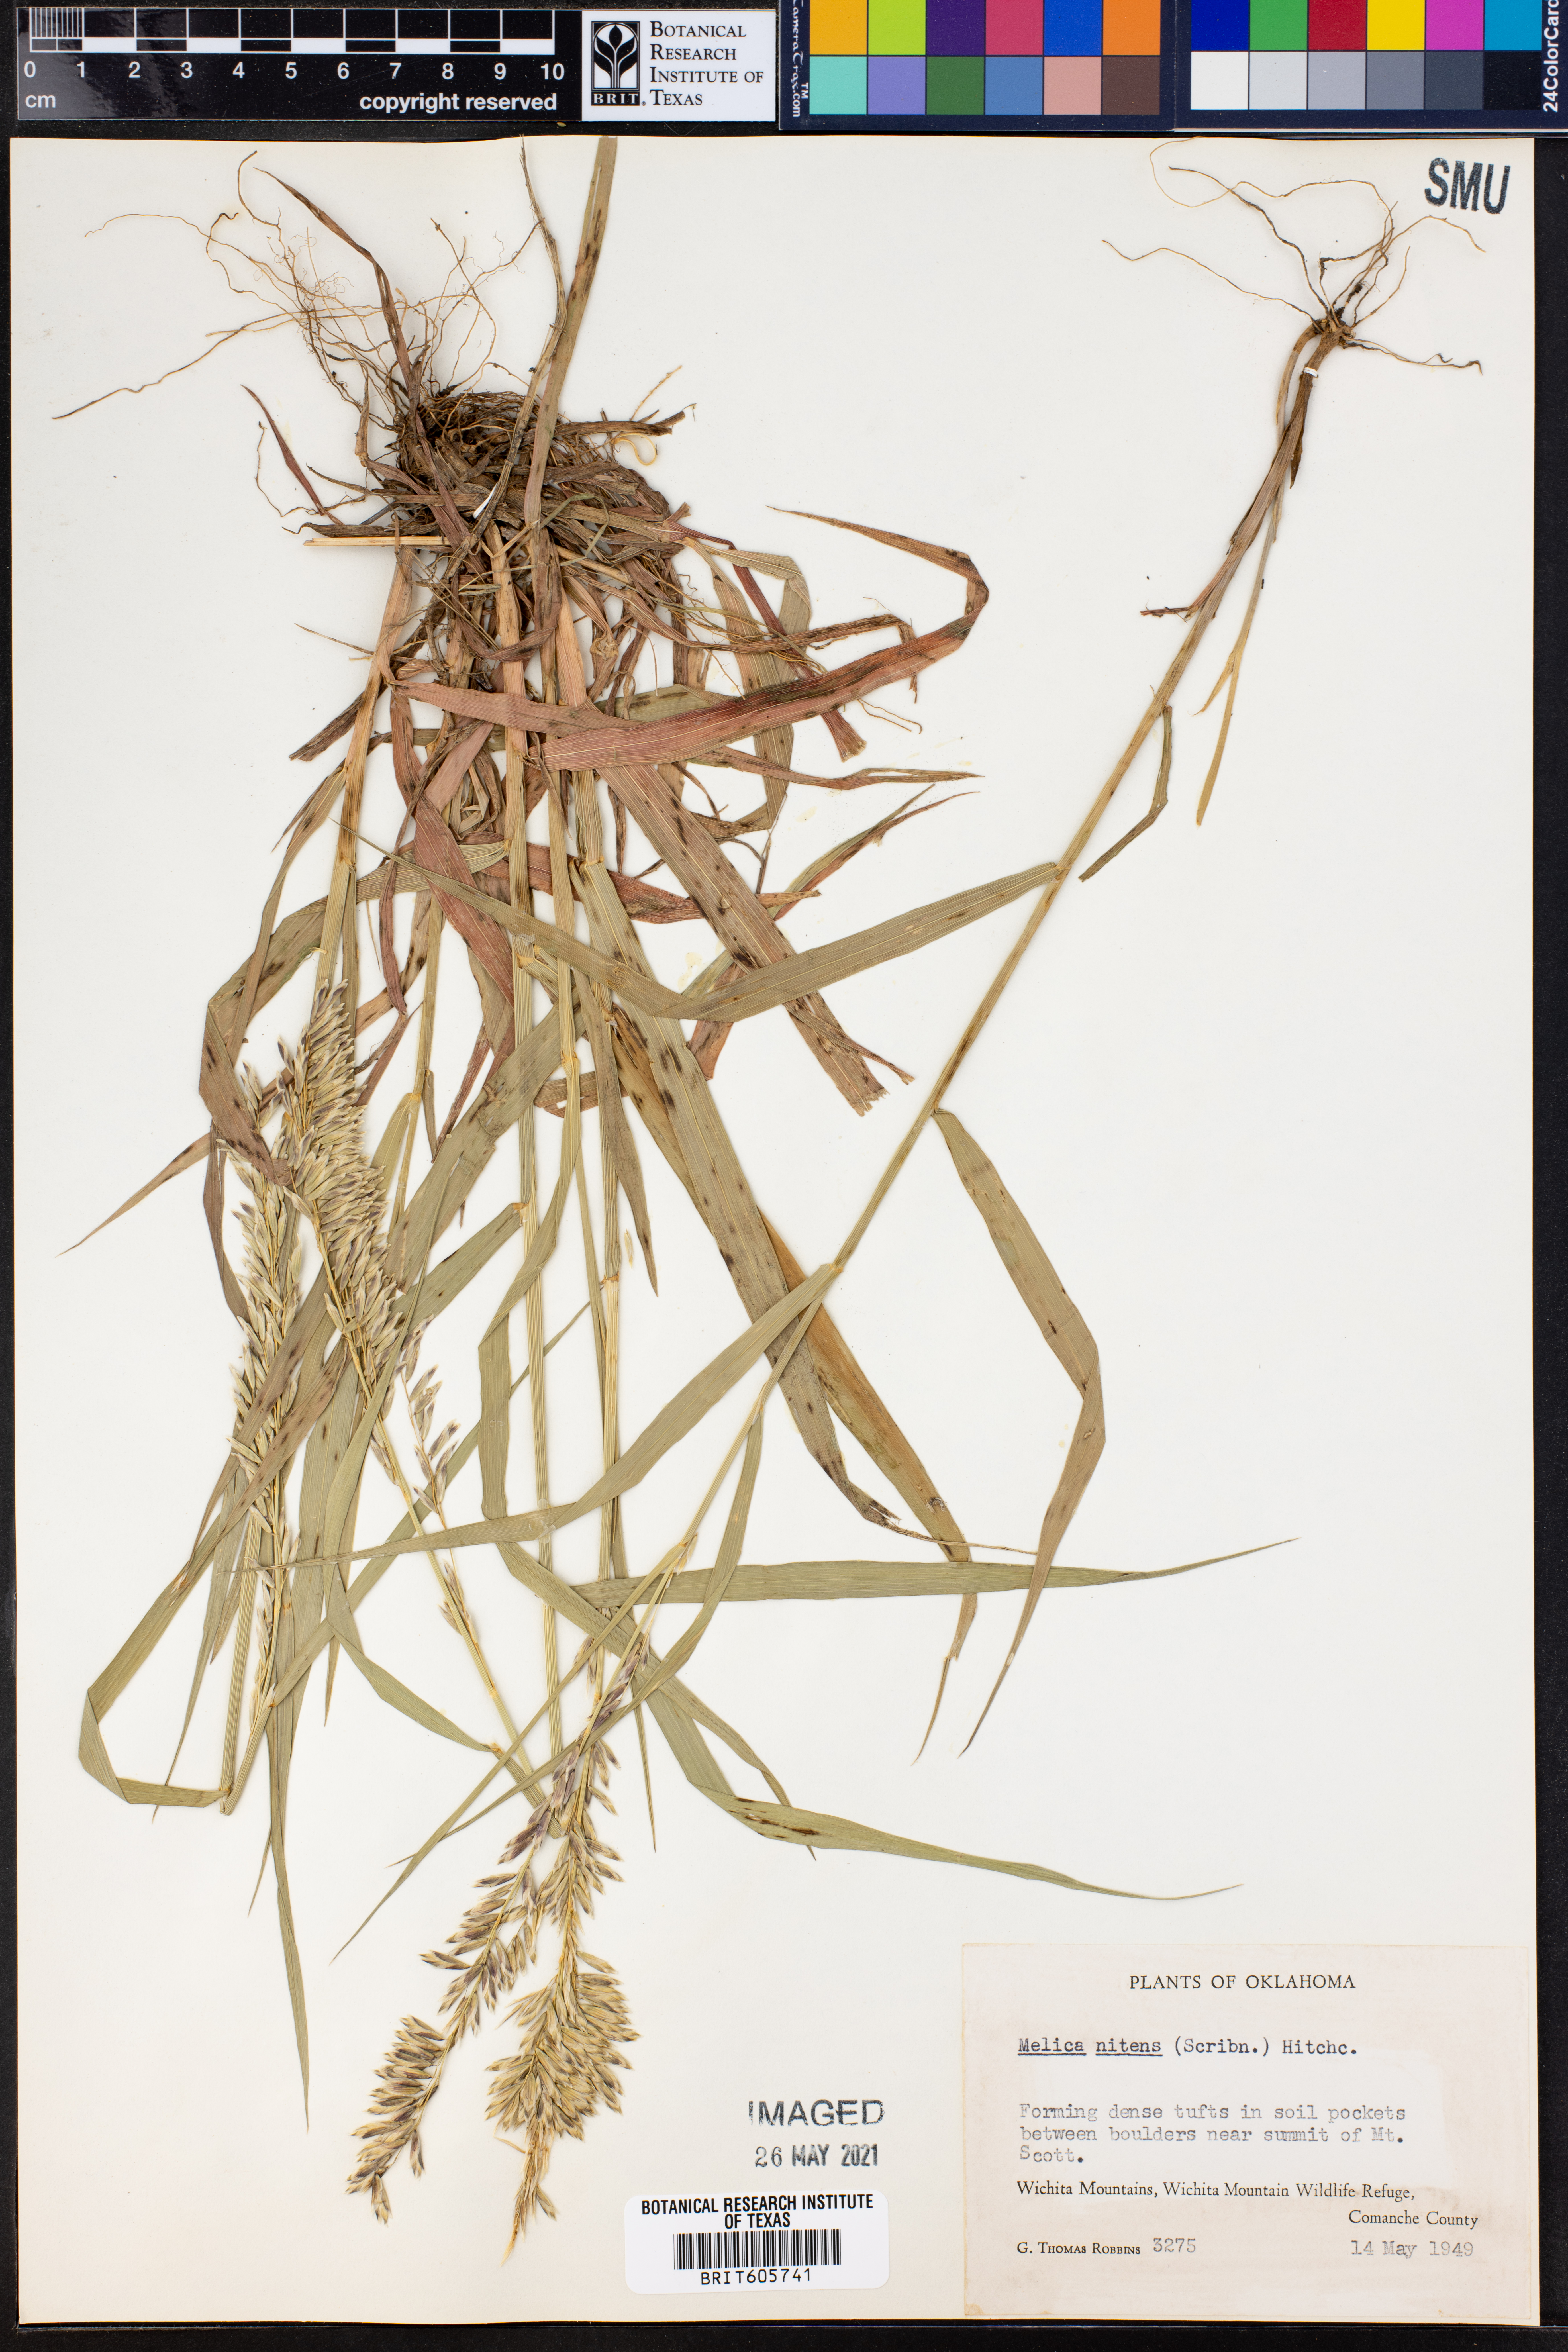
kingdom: Plantae
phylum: Tracheophyta
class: Liliopsida
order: Poales
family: Poaceae
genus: Melica
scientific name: Melica nitens
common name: Three-flower melic
